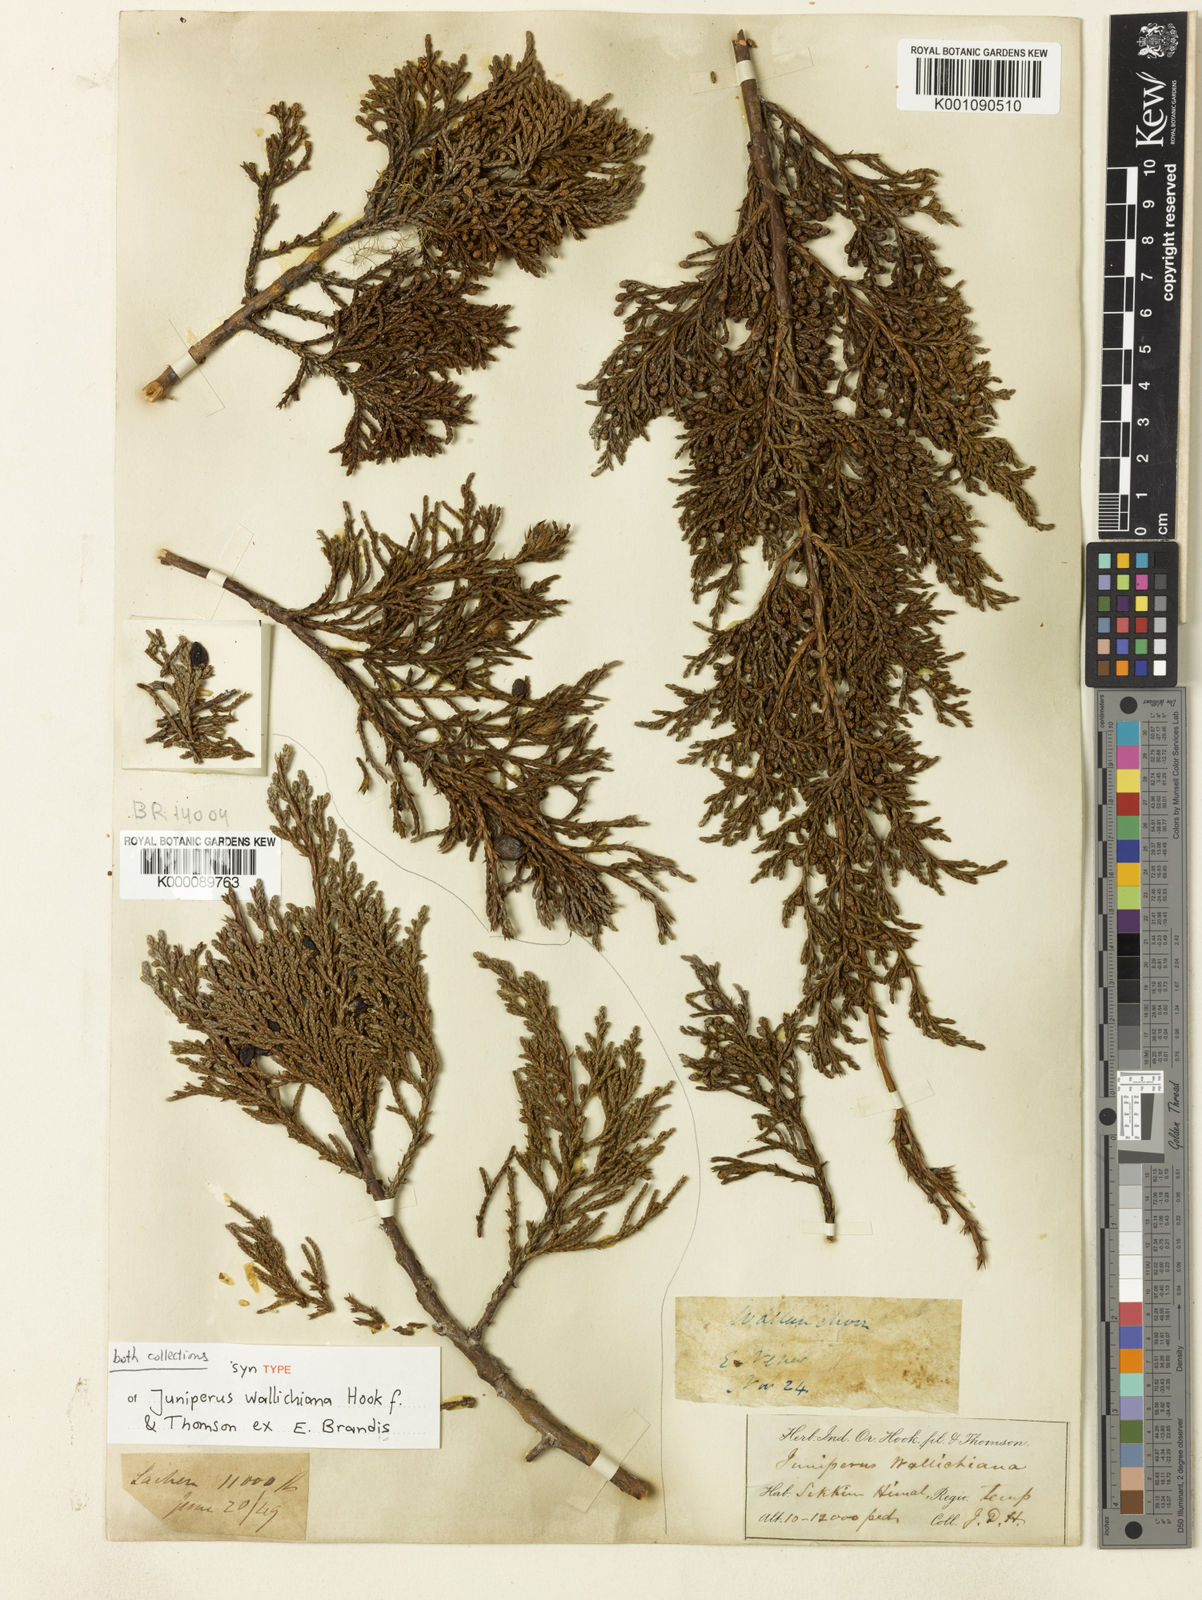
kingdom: Plantae
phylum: Tracheophyta
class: Pinopsida
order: Pinales
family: Cupressaceae
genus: Juniperus
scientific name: Juniperus indica
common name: Black juniper
